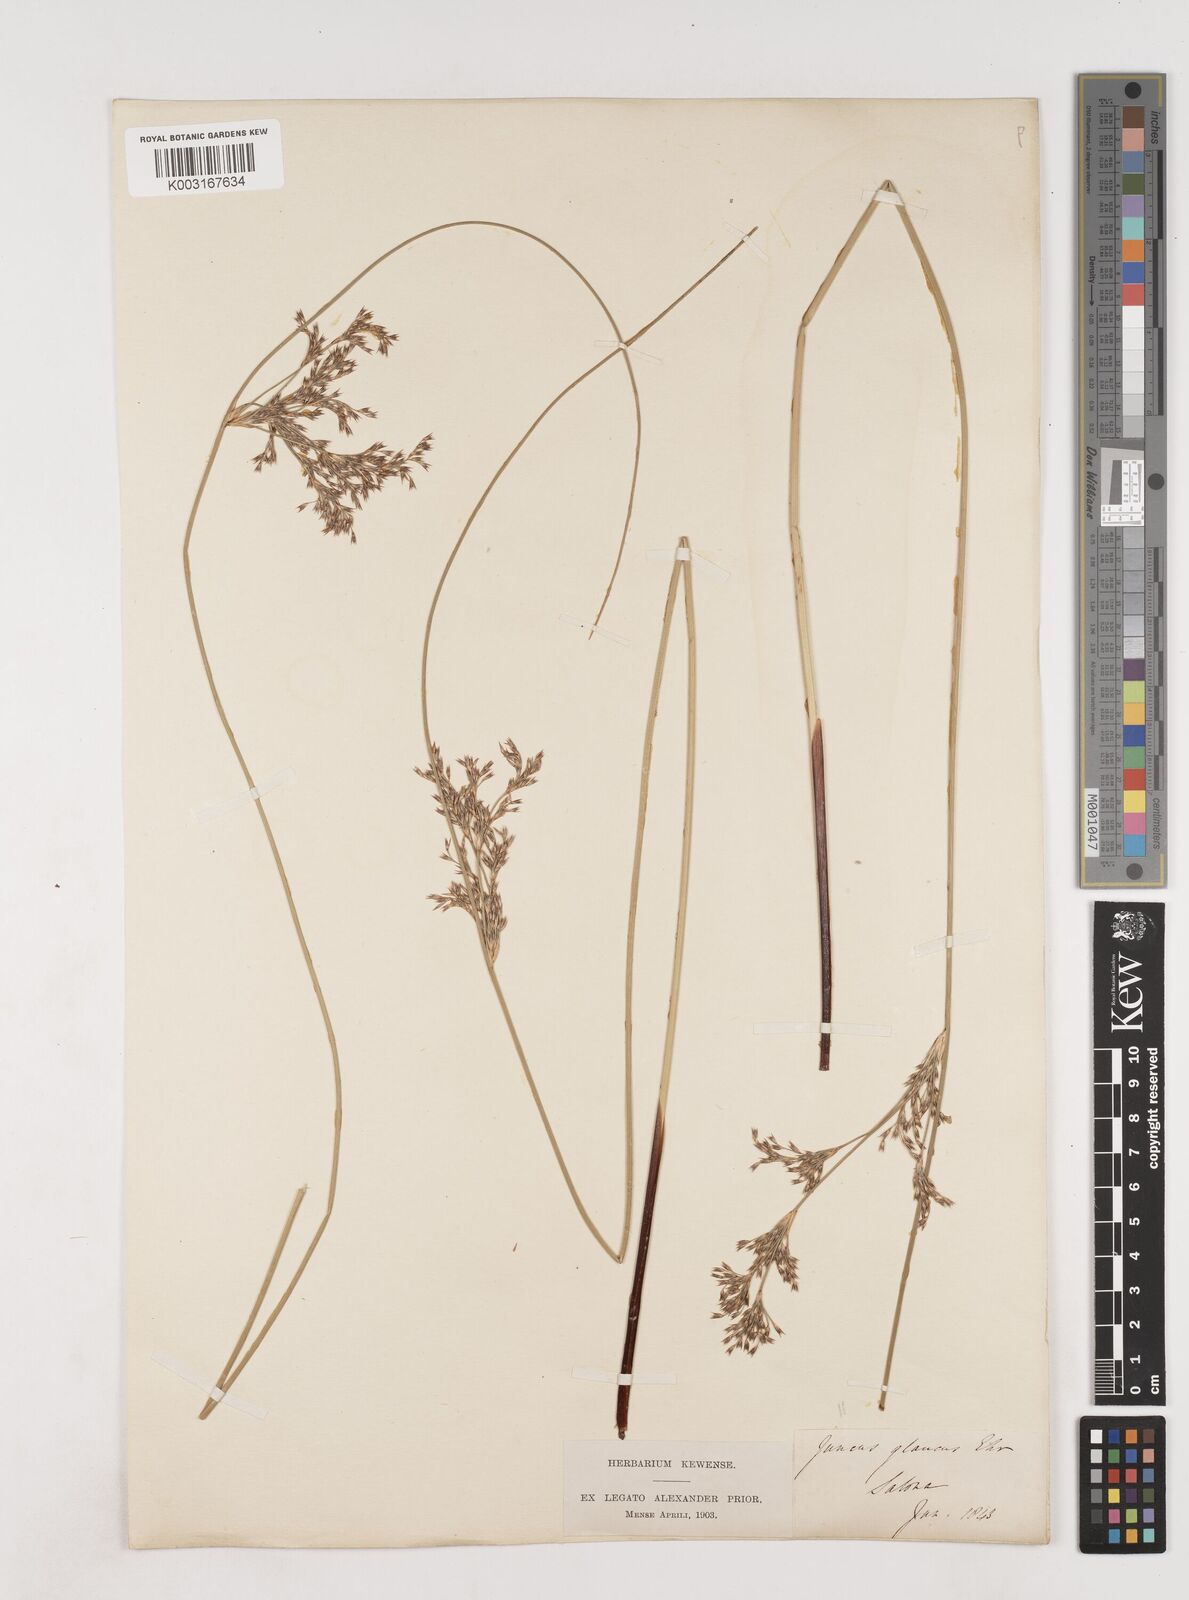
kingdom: Plantae
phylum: Tracheophyta
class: Liliopsida
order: Poales
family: Juncaceae
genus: Juncus
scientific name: Juncus inflexus
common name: Hard rush
